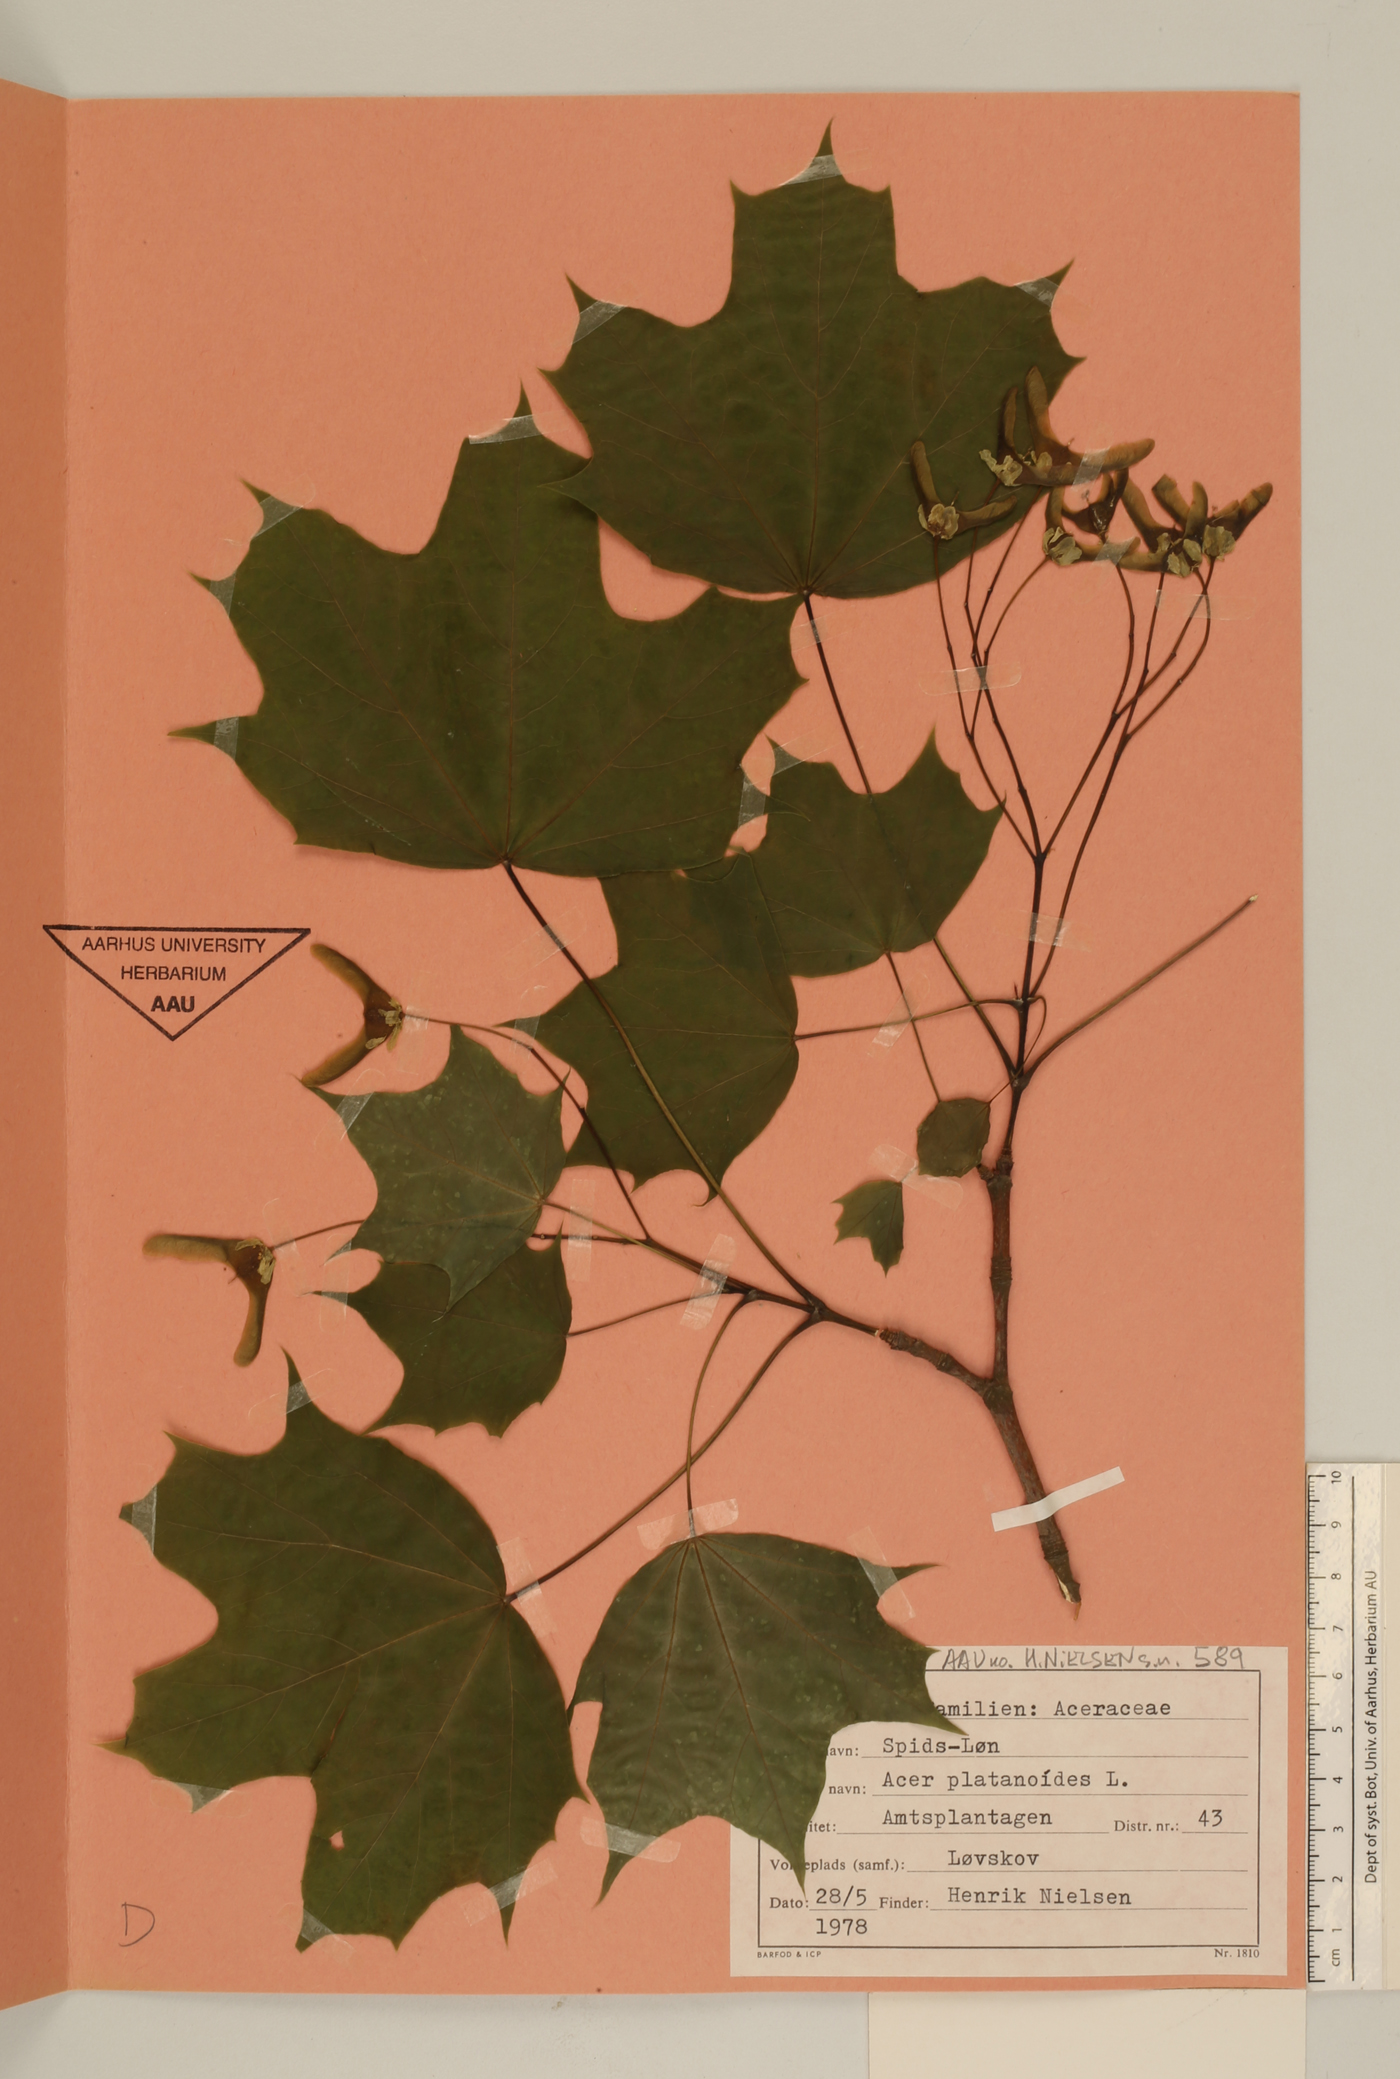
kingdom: Plantae
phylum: Tracheophyta
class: Magnoliopsida
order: Sapindales
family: Sapindaceae
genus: Acer
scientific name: Acer platanoides
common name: Norway maple
